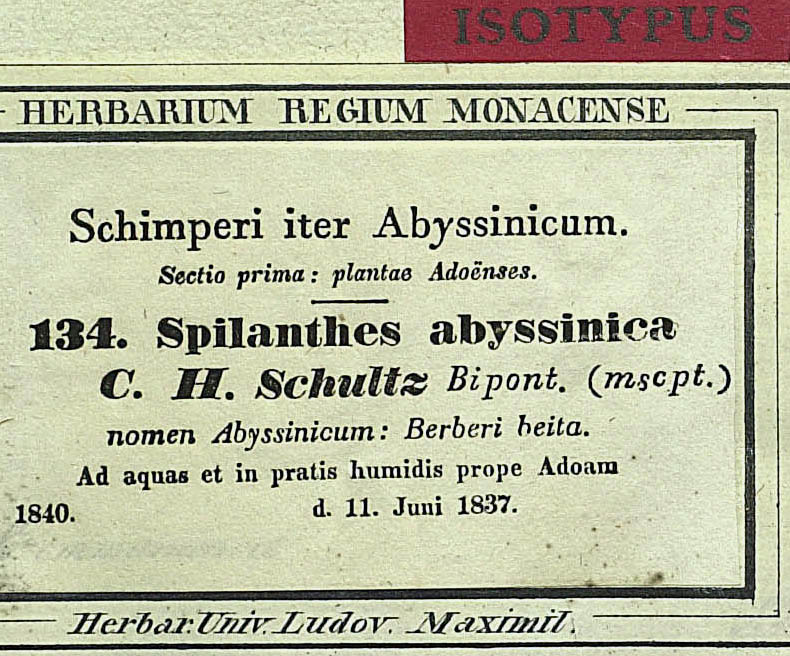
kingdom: Plantae
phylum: Tracheophyta
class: Magnoliopsida
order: Asterales
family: Asteraceae
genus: Acmella
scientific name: Acmella caulirhiza
